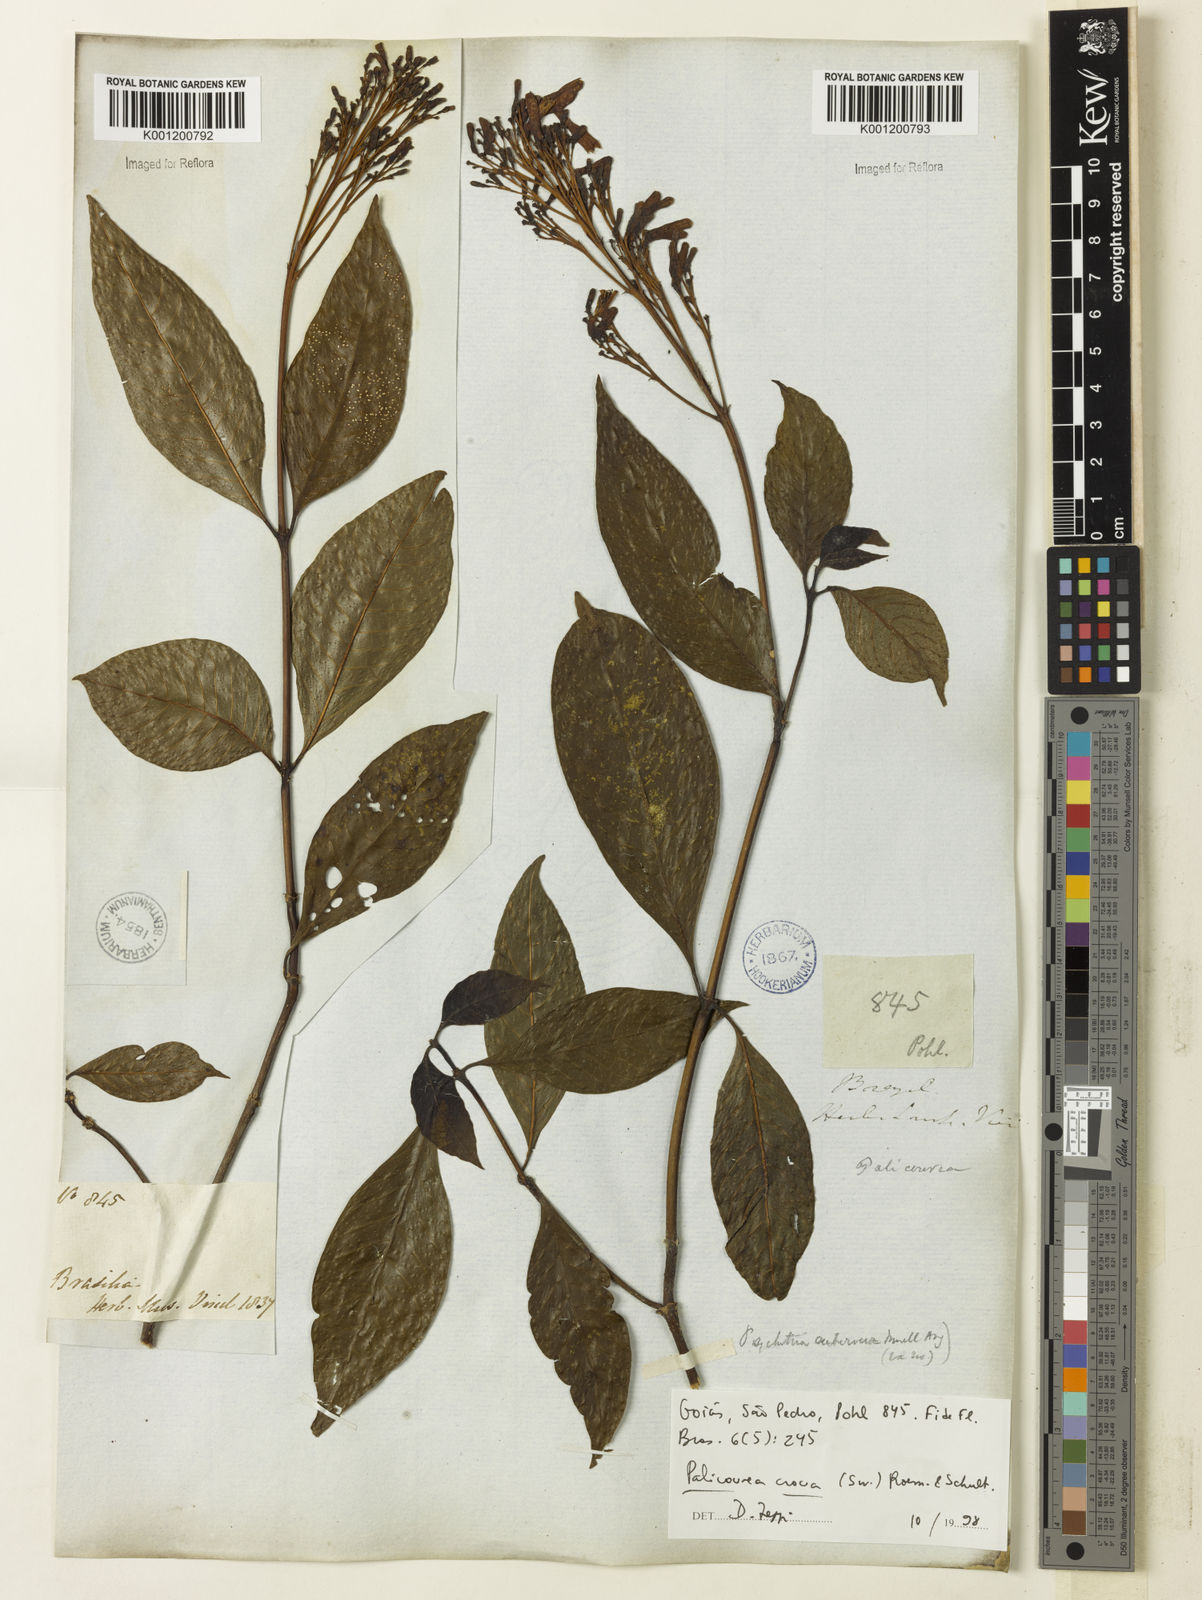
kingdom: Plantae
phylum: Tracheophyta
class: Magnoliopsida
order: Gentianales
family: Rubiaceae
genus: Palicourea
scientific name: Palicourea crocea
